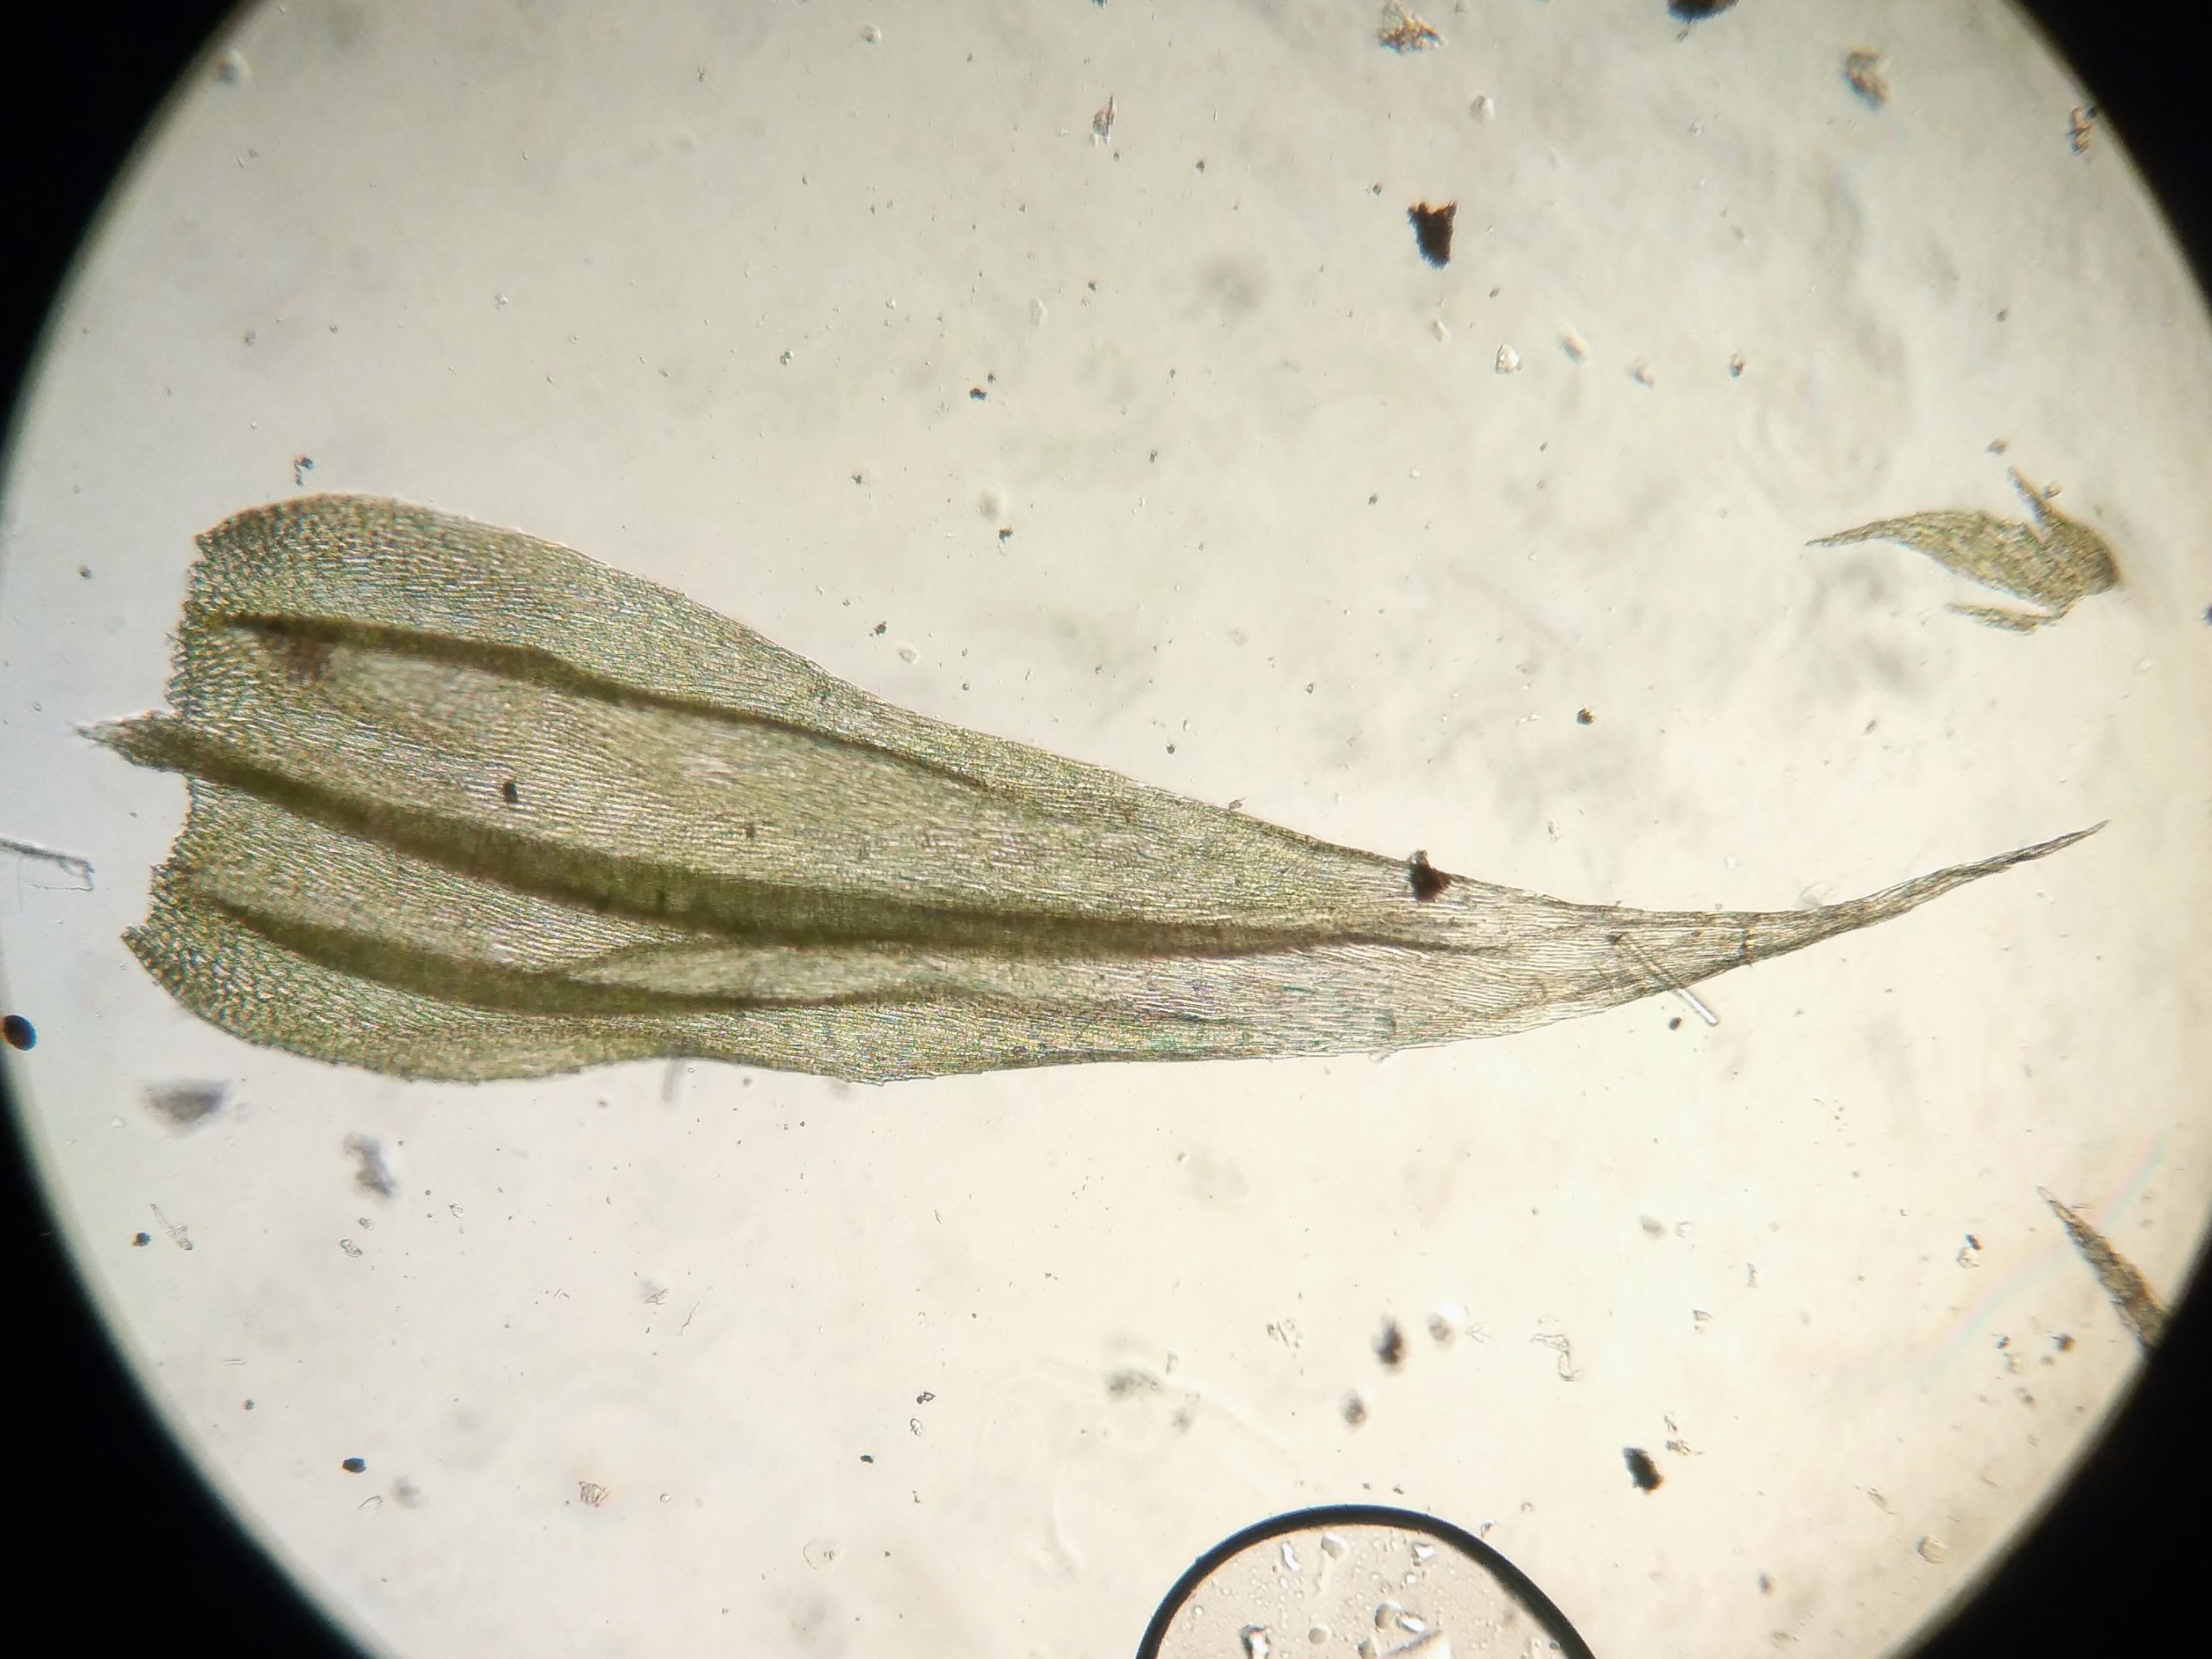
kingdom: Plantae
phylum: Bryophyta
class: Bryopsida
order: Hypnales
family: Brachytheciaceae
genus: Brachythecium
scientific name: Brachythecium salebrosum
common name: Skov-kortkapsel
